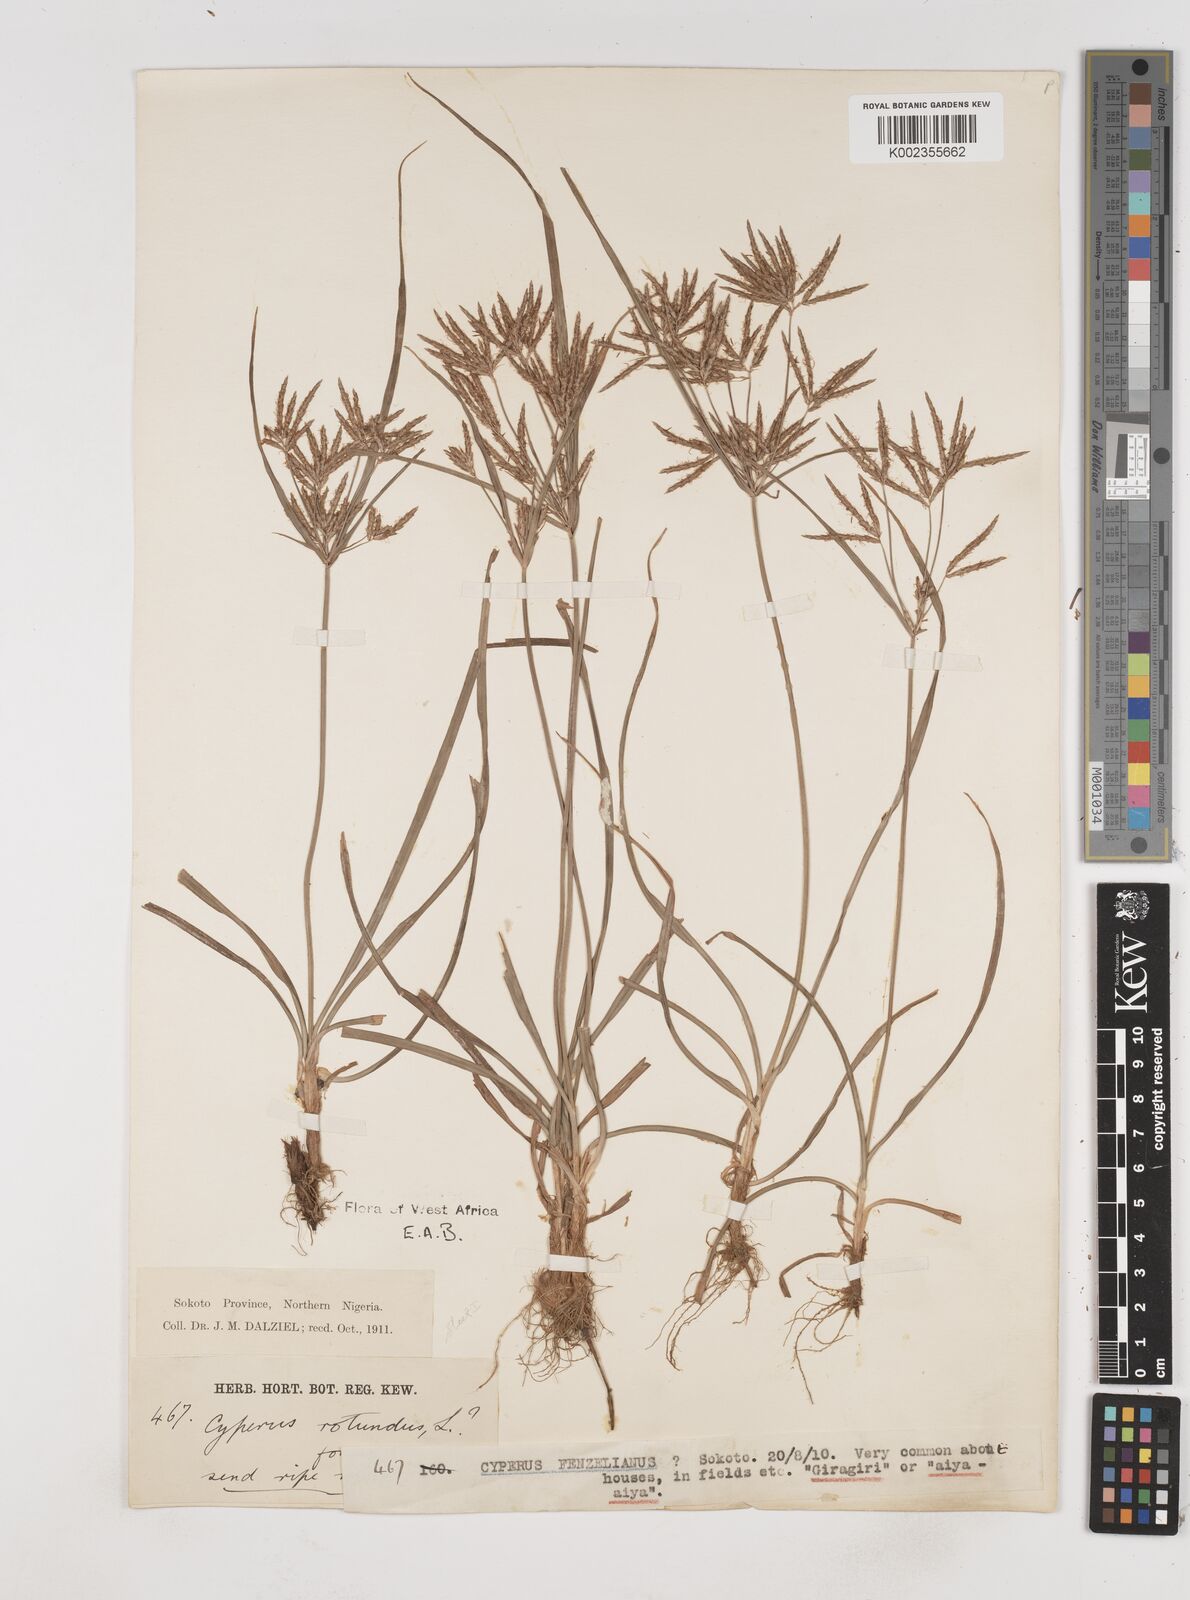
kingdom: Plantae
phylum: Tracheophyta
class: Liliopsida
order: Poales
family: Cyperaceae
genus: Cyperus
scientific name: Cyperus rotundus
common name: Nutgrass
